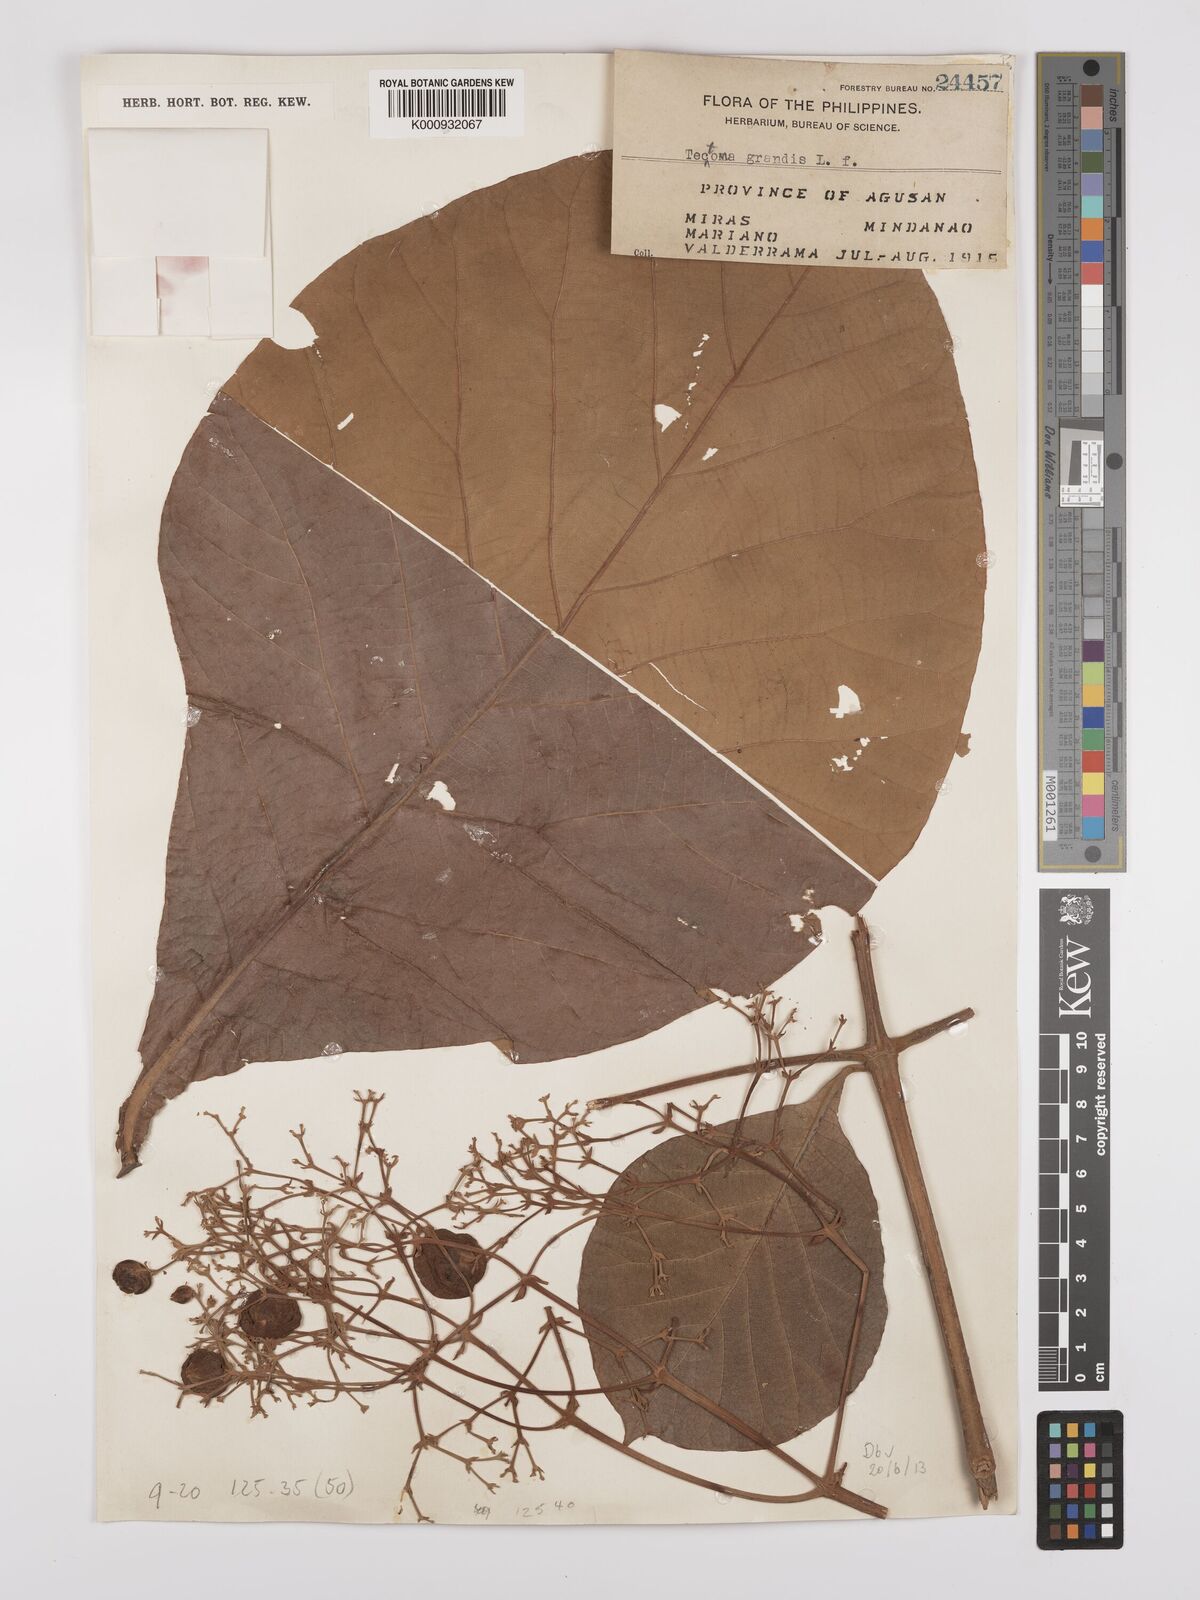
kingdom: Plantae
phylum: Tracheophyta
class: Magnoliopsida
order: Lamiales
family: Lamiaceae
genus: Tectona
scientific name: Tectona grandis
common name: Teak
